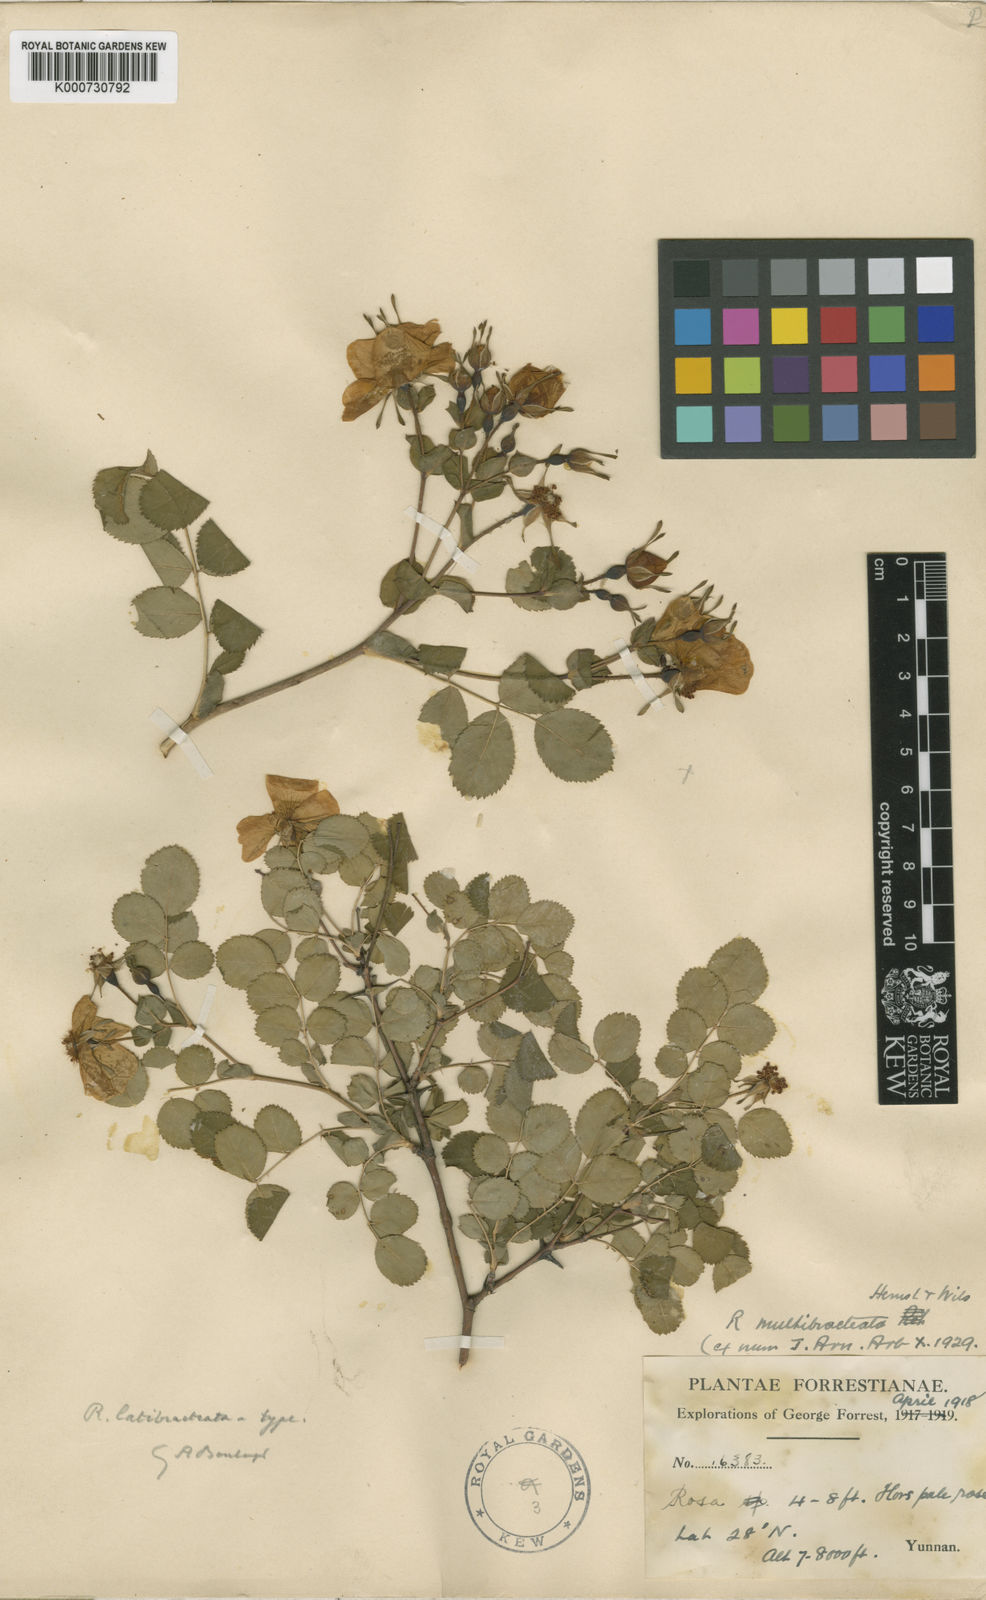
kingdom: Plantae
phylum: Tracheophyta
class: Magnoliopsida
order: Rosales
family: Rosaceae
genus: Rosa
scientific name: Rosa multibracteata
